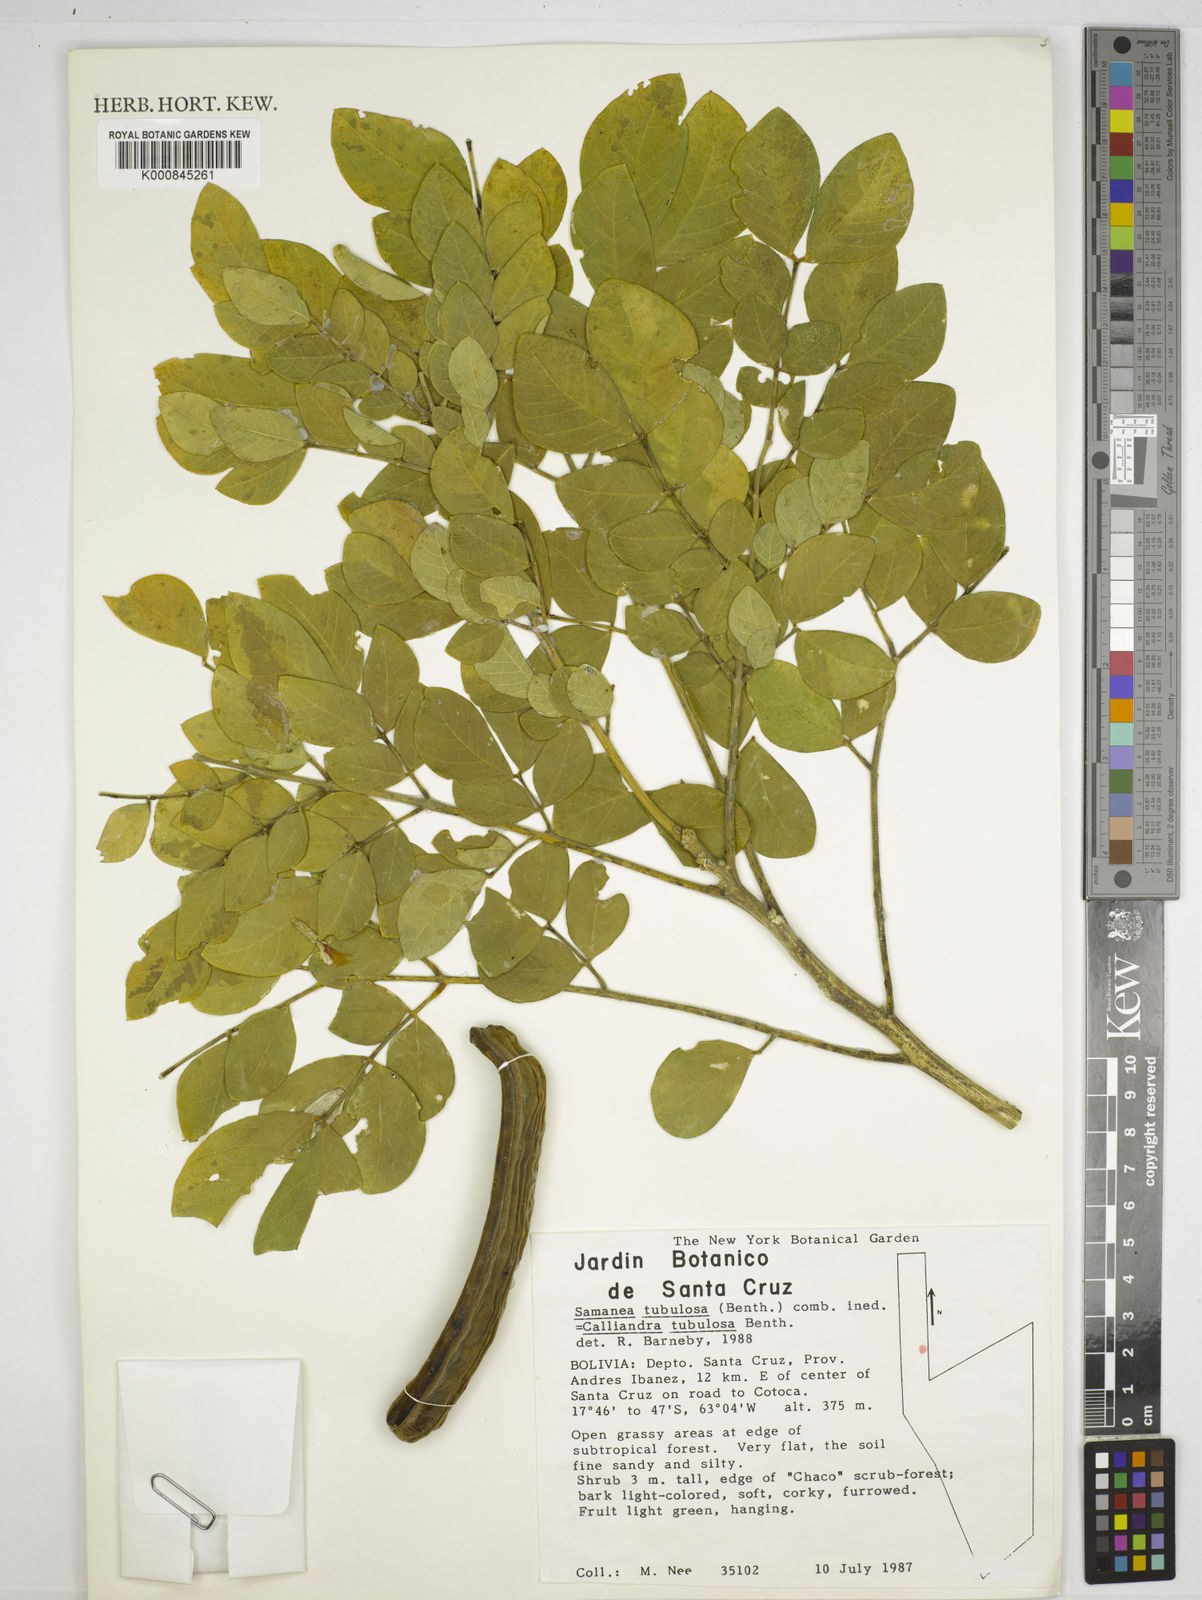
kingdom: Plantae
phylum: Tracheophyta
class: Magnoliopsida
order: Fabales
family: Fabaceae
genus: Samanea
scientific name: Samanea tubulosa
